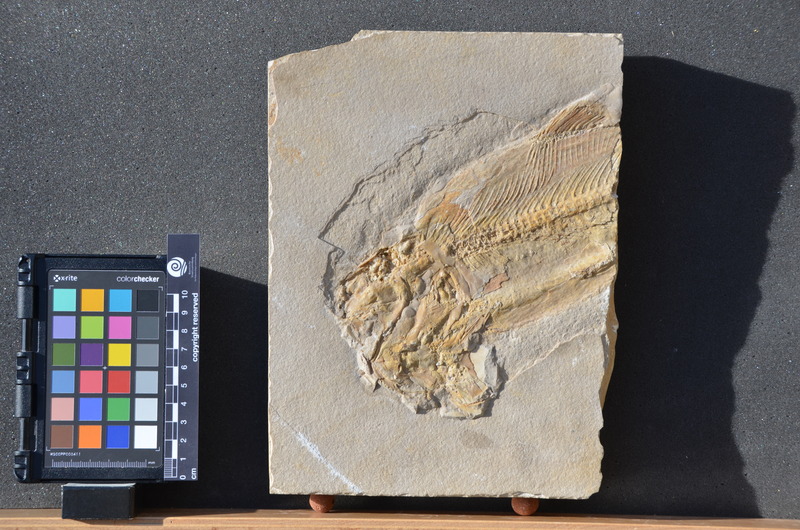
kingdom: Animalia
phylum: Chordata
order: Amiiformes
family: Ionoscopidae
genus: Ionoscopus
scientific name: Ionoscopus desori
